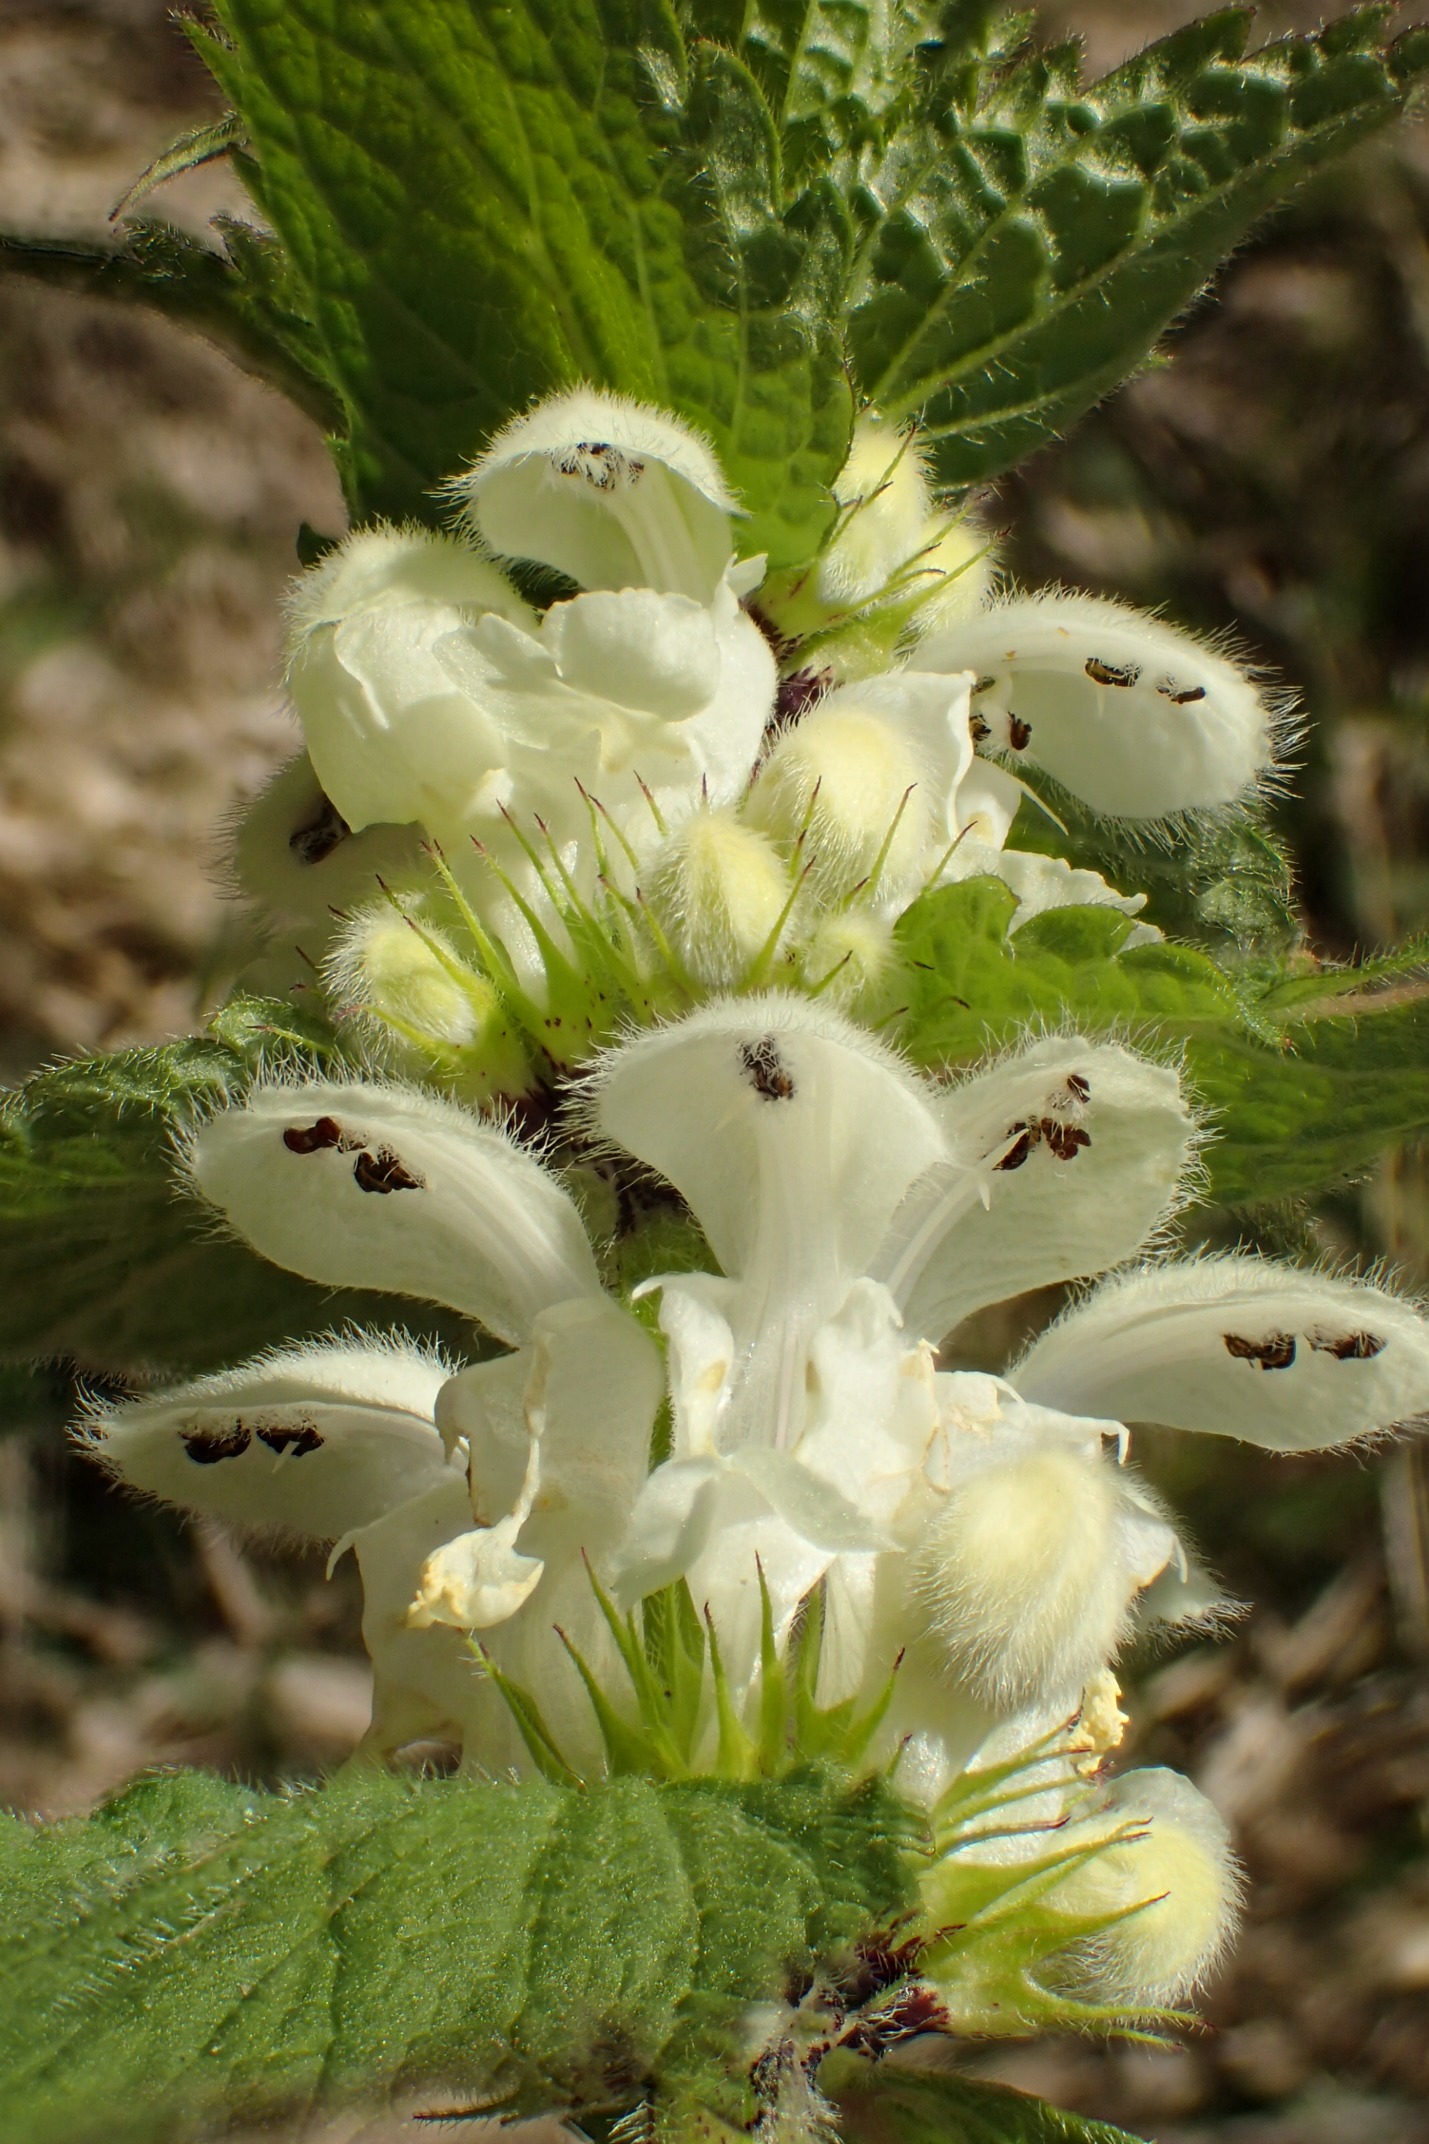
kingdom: Plantae
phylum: Tracheophyta
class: Magnoliopsida
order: Lamiales
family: Lamiaceae
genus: Lamium
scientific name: Lamium album
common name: Døvnælde
